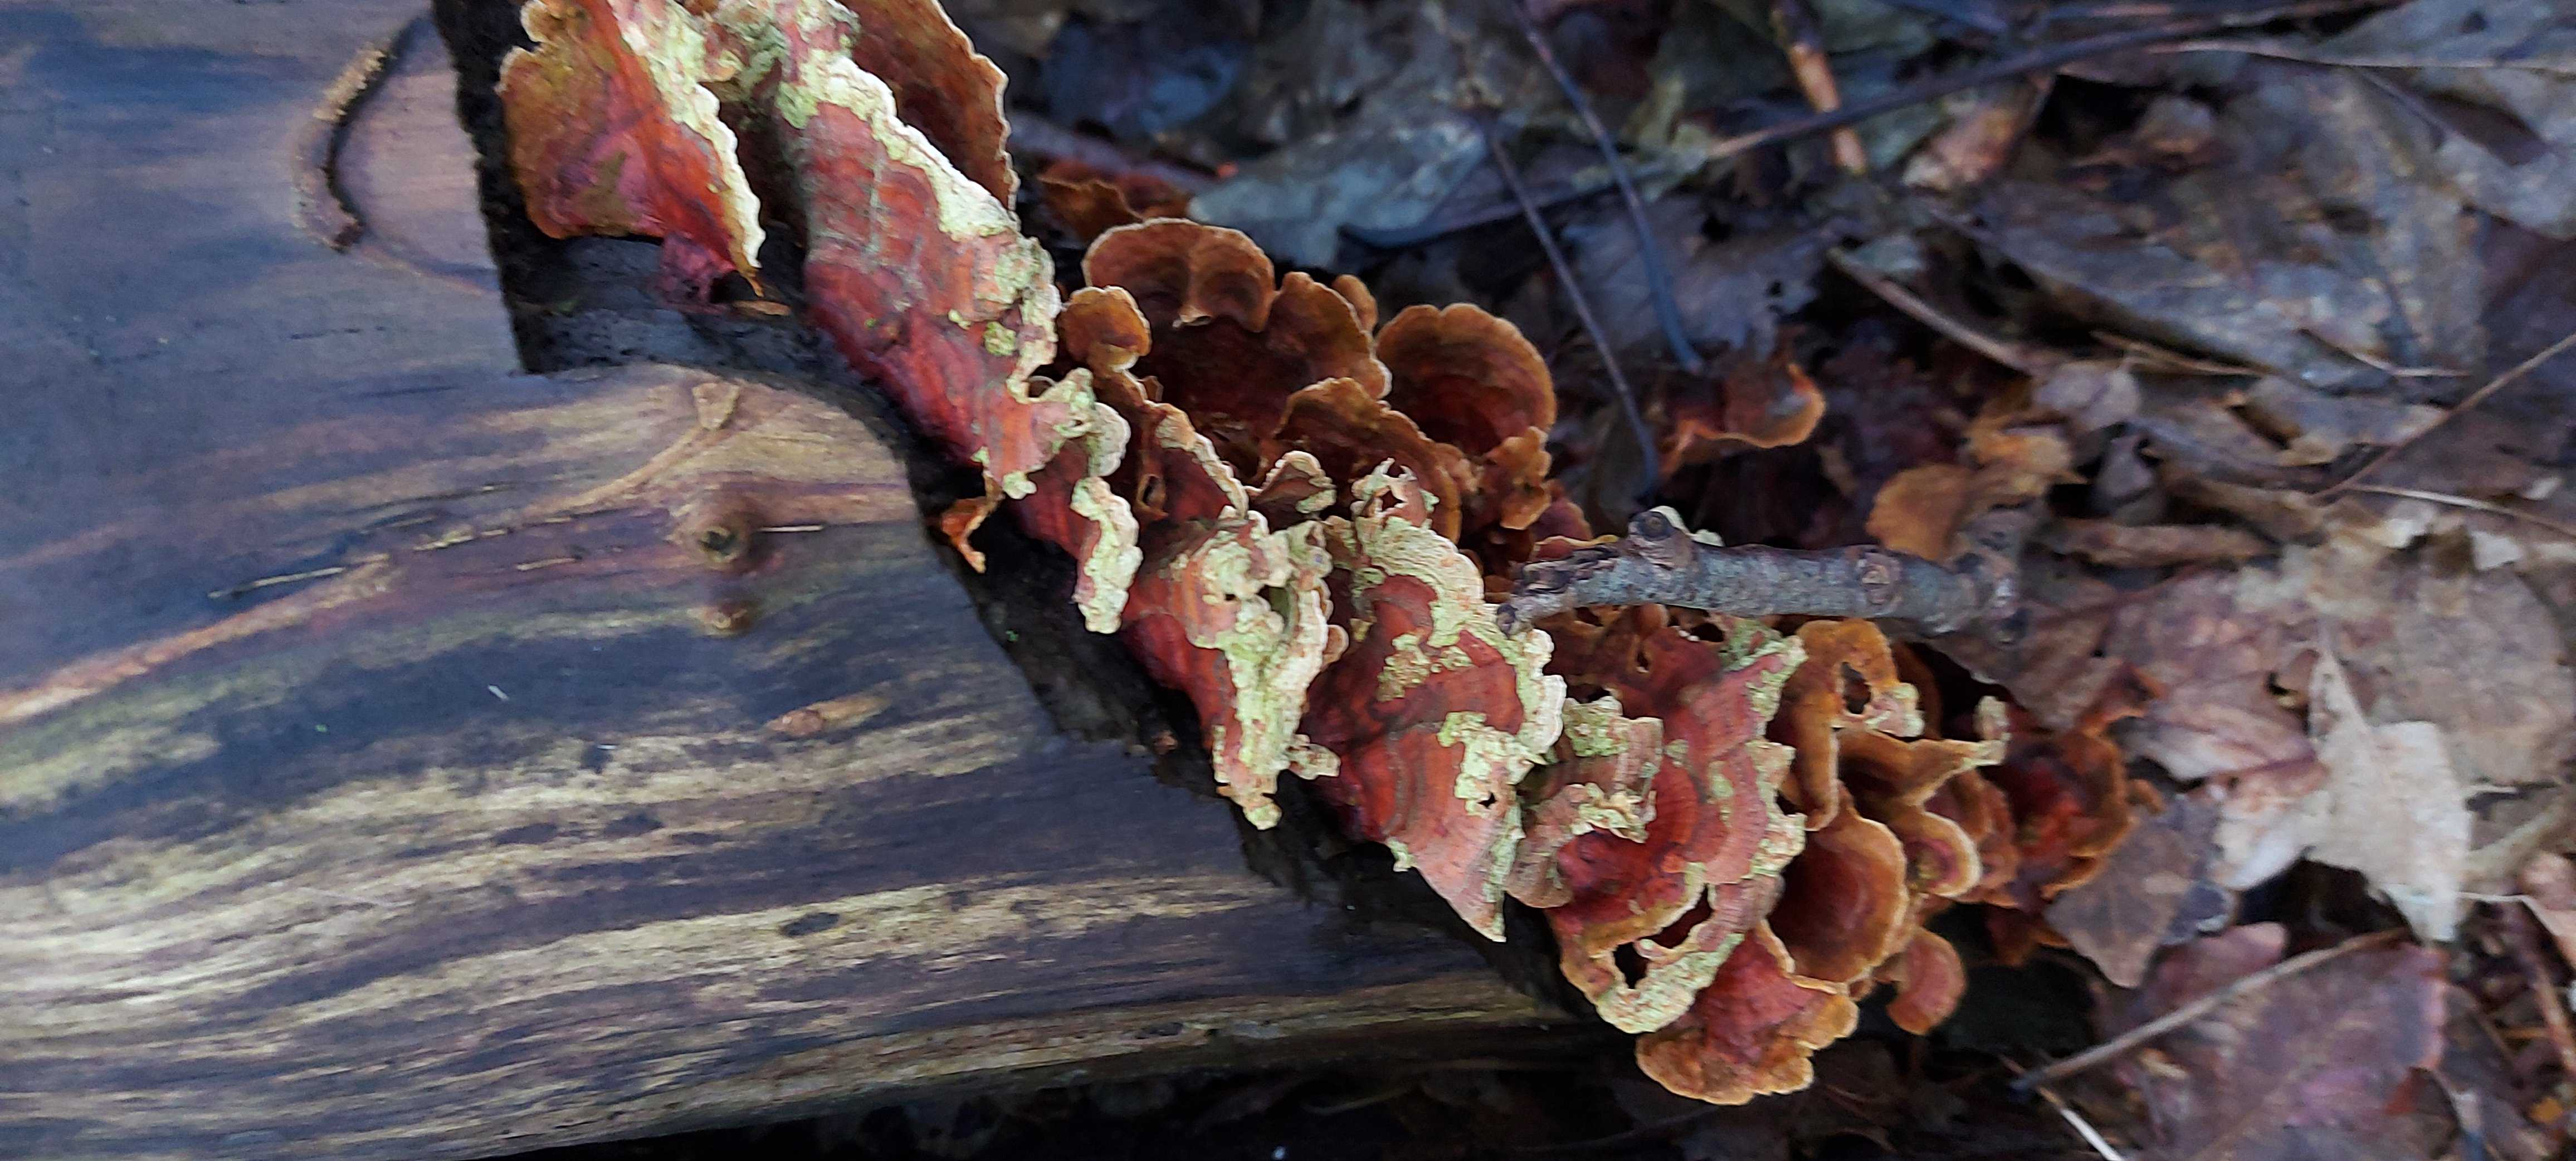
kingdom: Fungi
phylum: Basidiomycota
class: Agaricomycetes
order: Russulales
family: Stereaceae
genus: Stereum
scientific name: Stereum subtomentosum
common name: smuk lædersvamp
